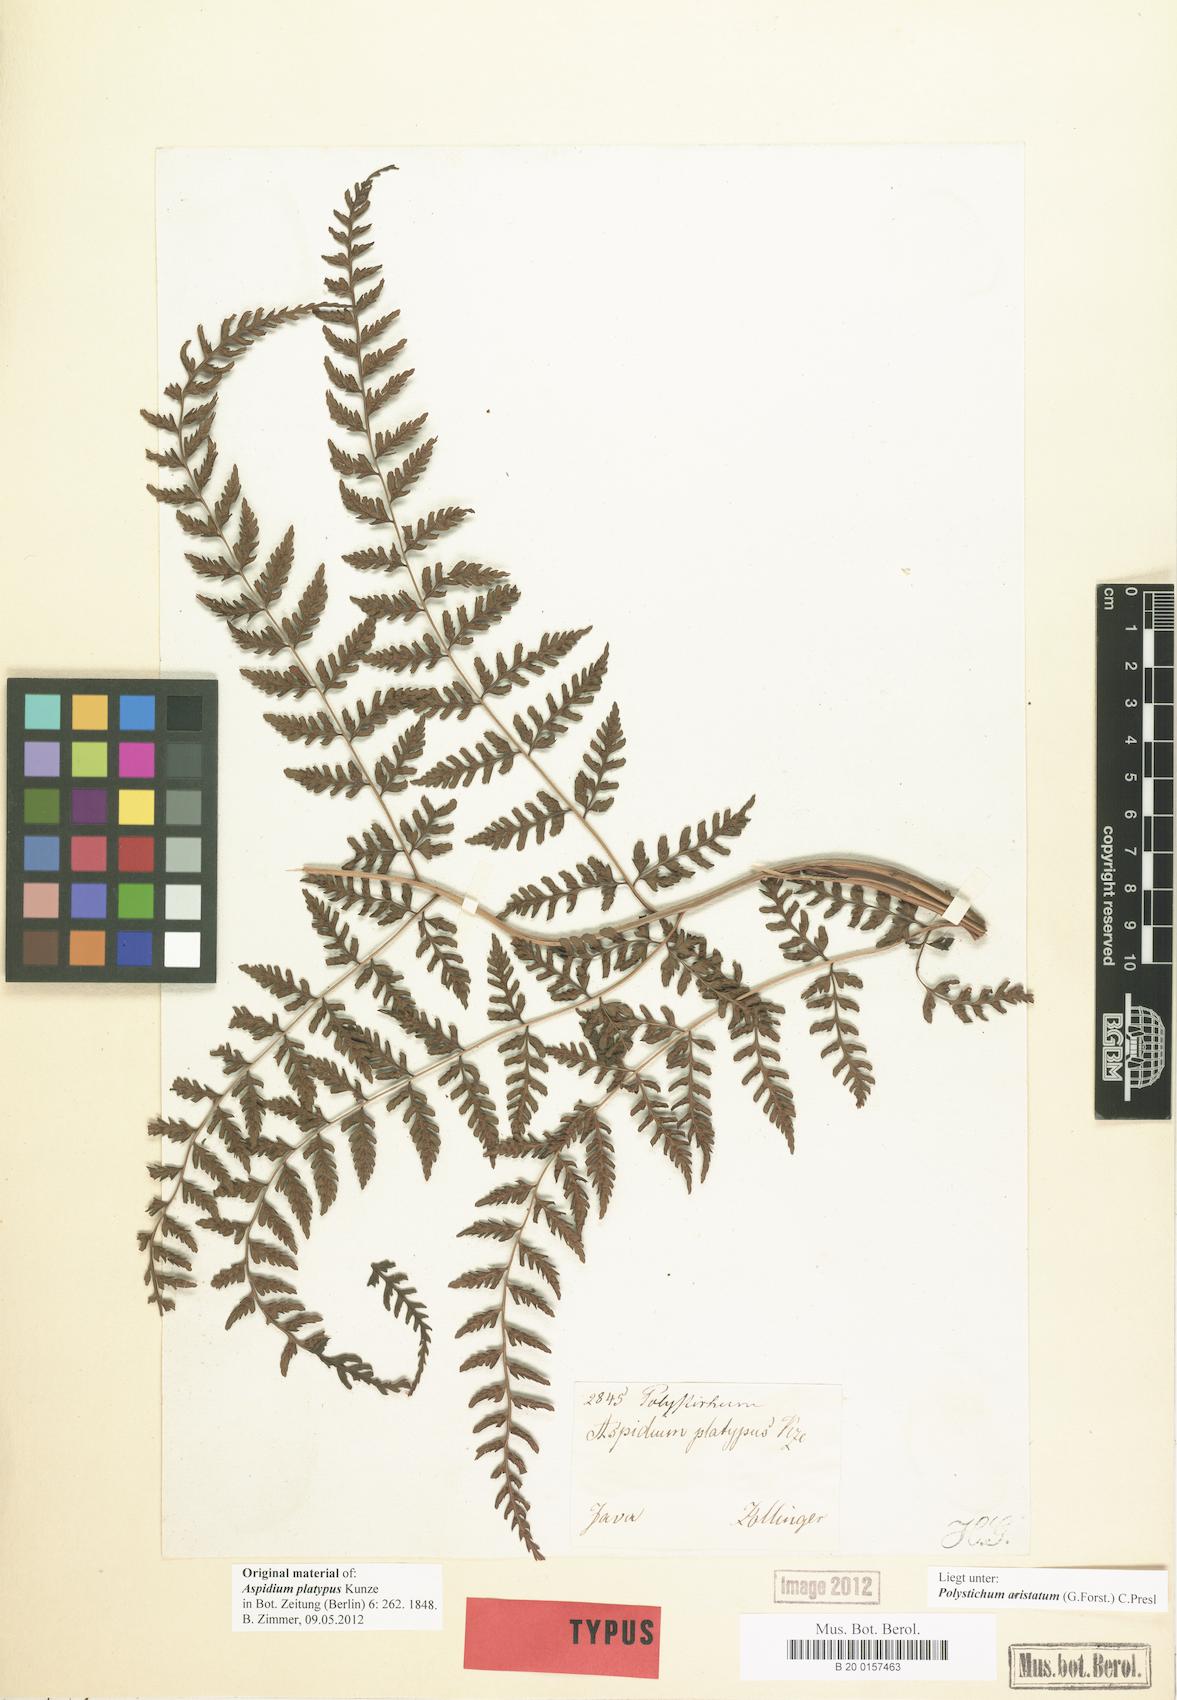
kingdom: Plantae
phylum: Tracheophyta
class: Polypodiopsida
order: Polypodiales
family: Dryopteridaceae
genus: Arachniodes
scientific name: Arachniodes aristata
